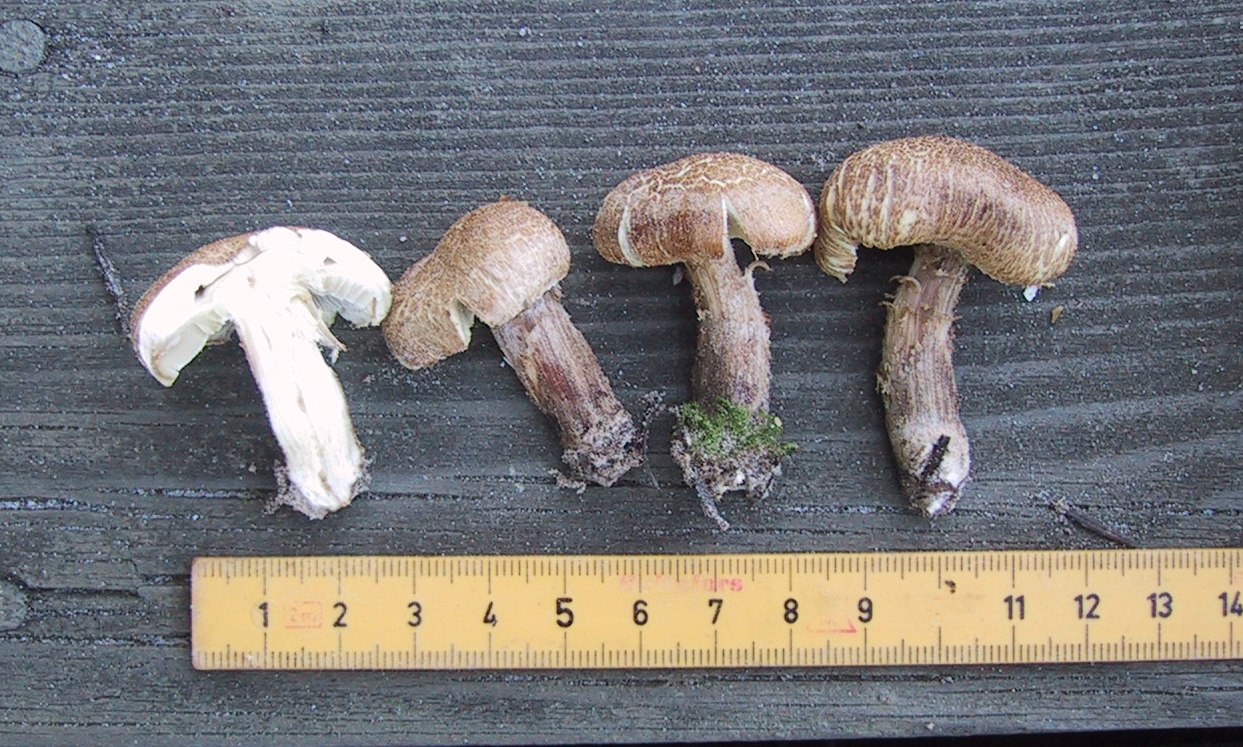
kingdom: Fungi
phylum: Basidiomycota
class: Agaricomycetes
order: Agaricales
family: Tricholomataceae
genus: Tricholoma
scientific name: Tricholoma
